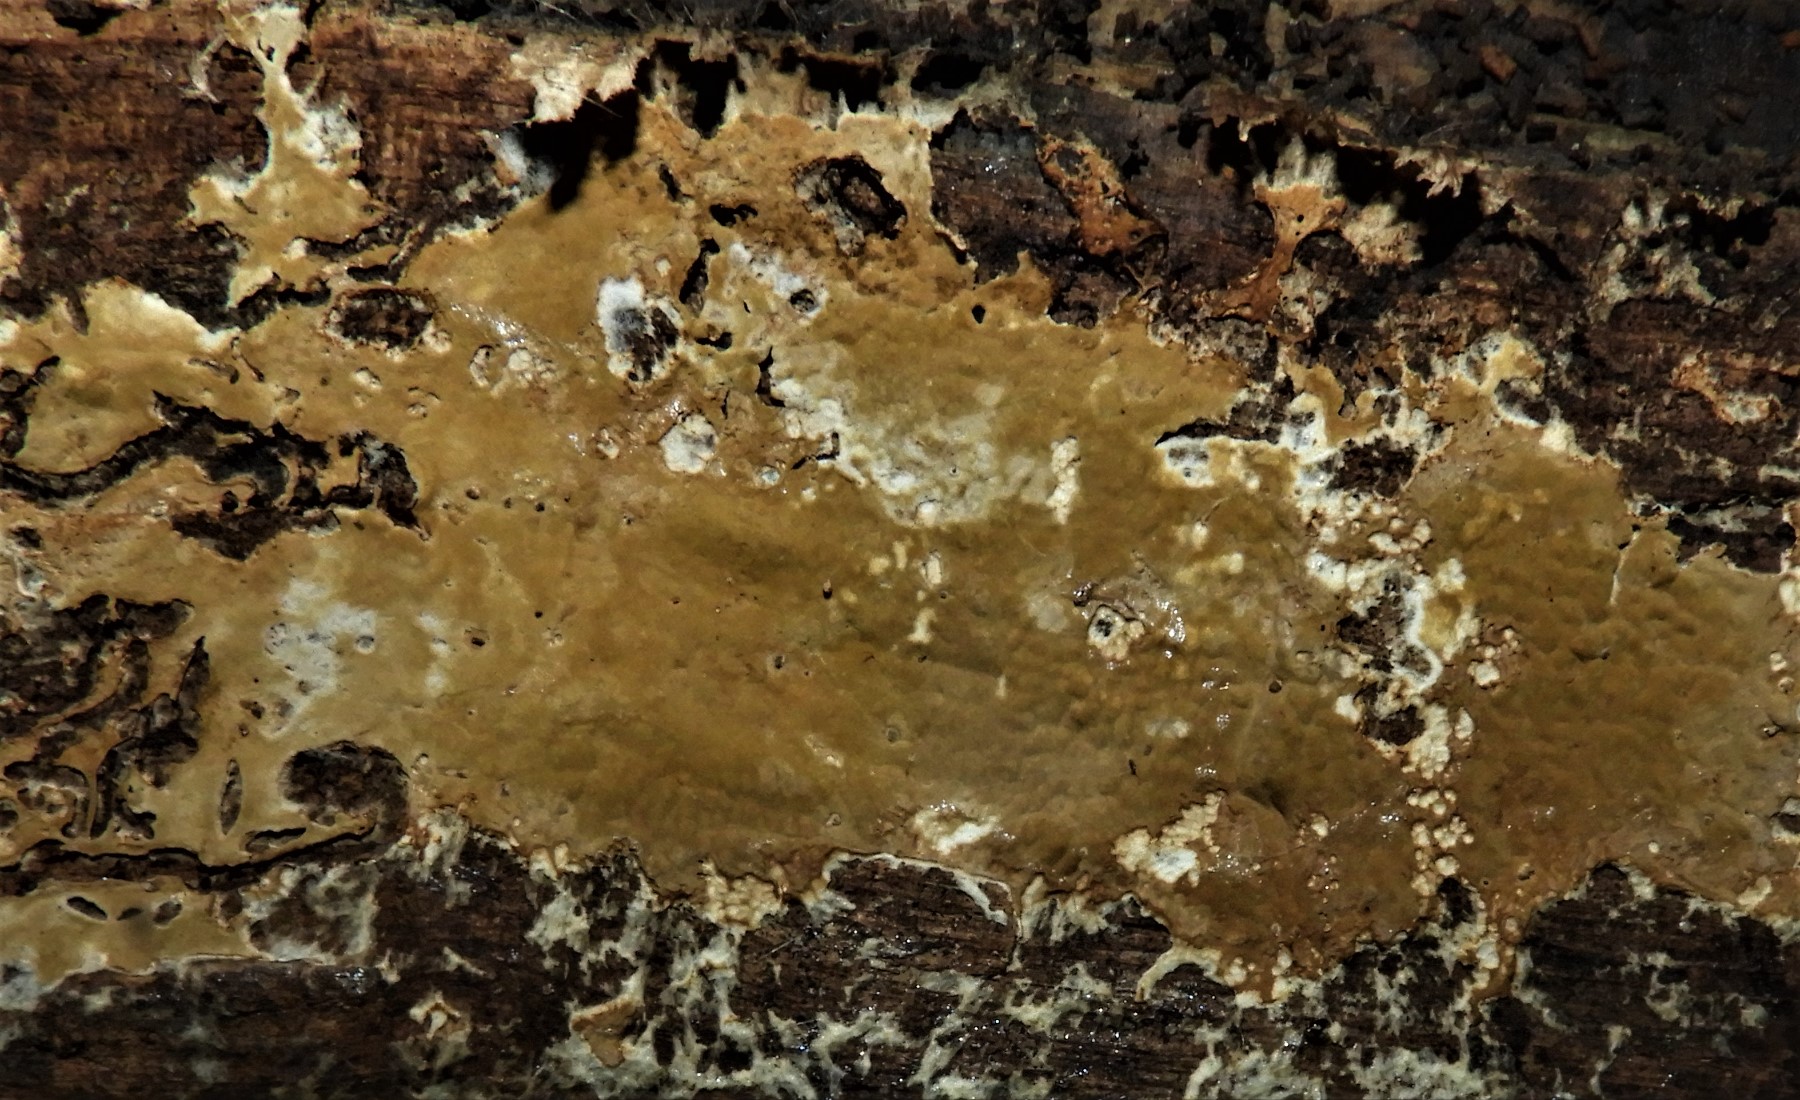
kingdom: Fungi
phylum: Basidiomycota
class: Agaricomycetes
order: Boletales
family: Coniophoraceae
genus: Coniophora
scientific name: Coniophora
